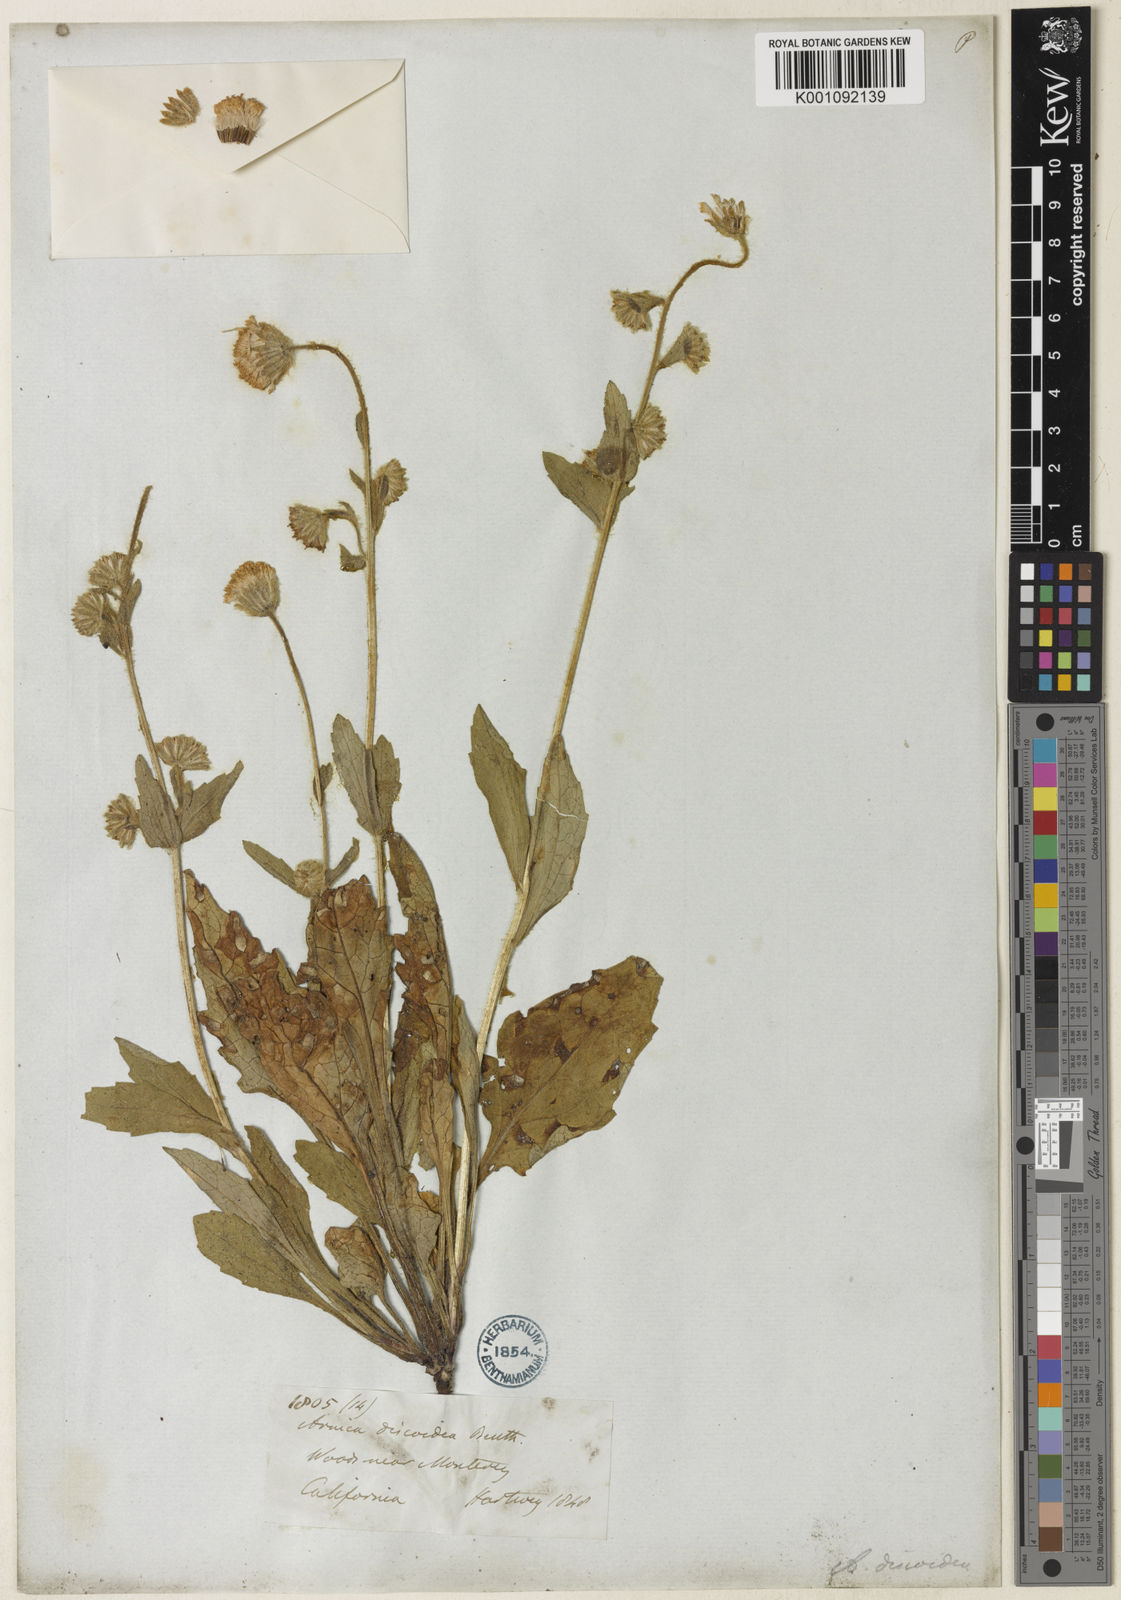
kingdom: Plantae
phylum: Tracheophyta
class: Magnoliopsida
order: Asterales
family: Asteraceae
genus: Arnica
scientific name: Arnica discoidea
